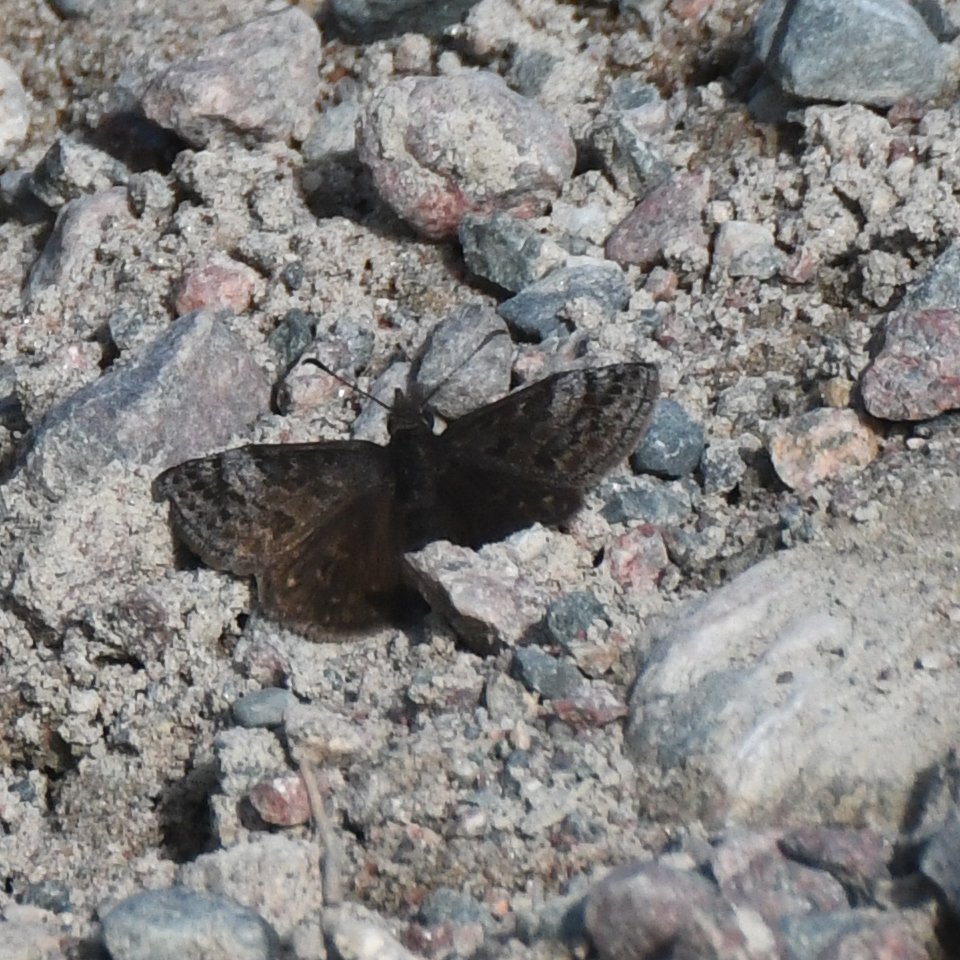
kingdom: Animalia
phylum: Arthropoda
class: Insecta
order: Lepidoptera
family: Hesperiidae
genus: Erynnis
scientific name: Erynnis icelus
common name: Dreamy Duskywing
